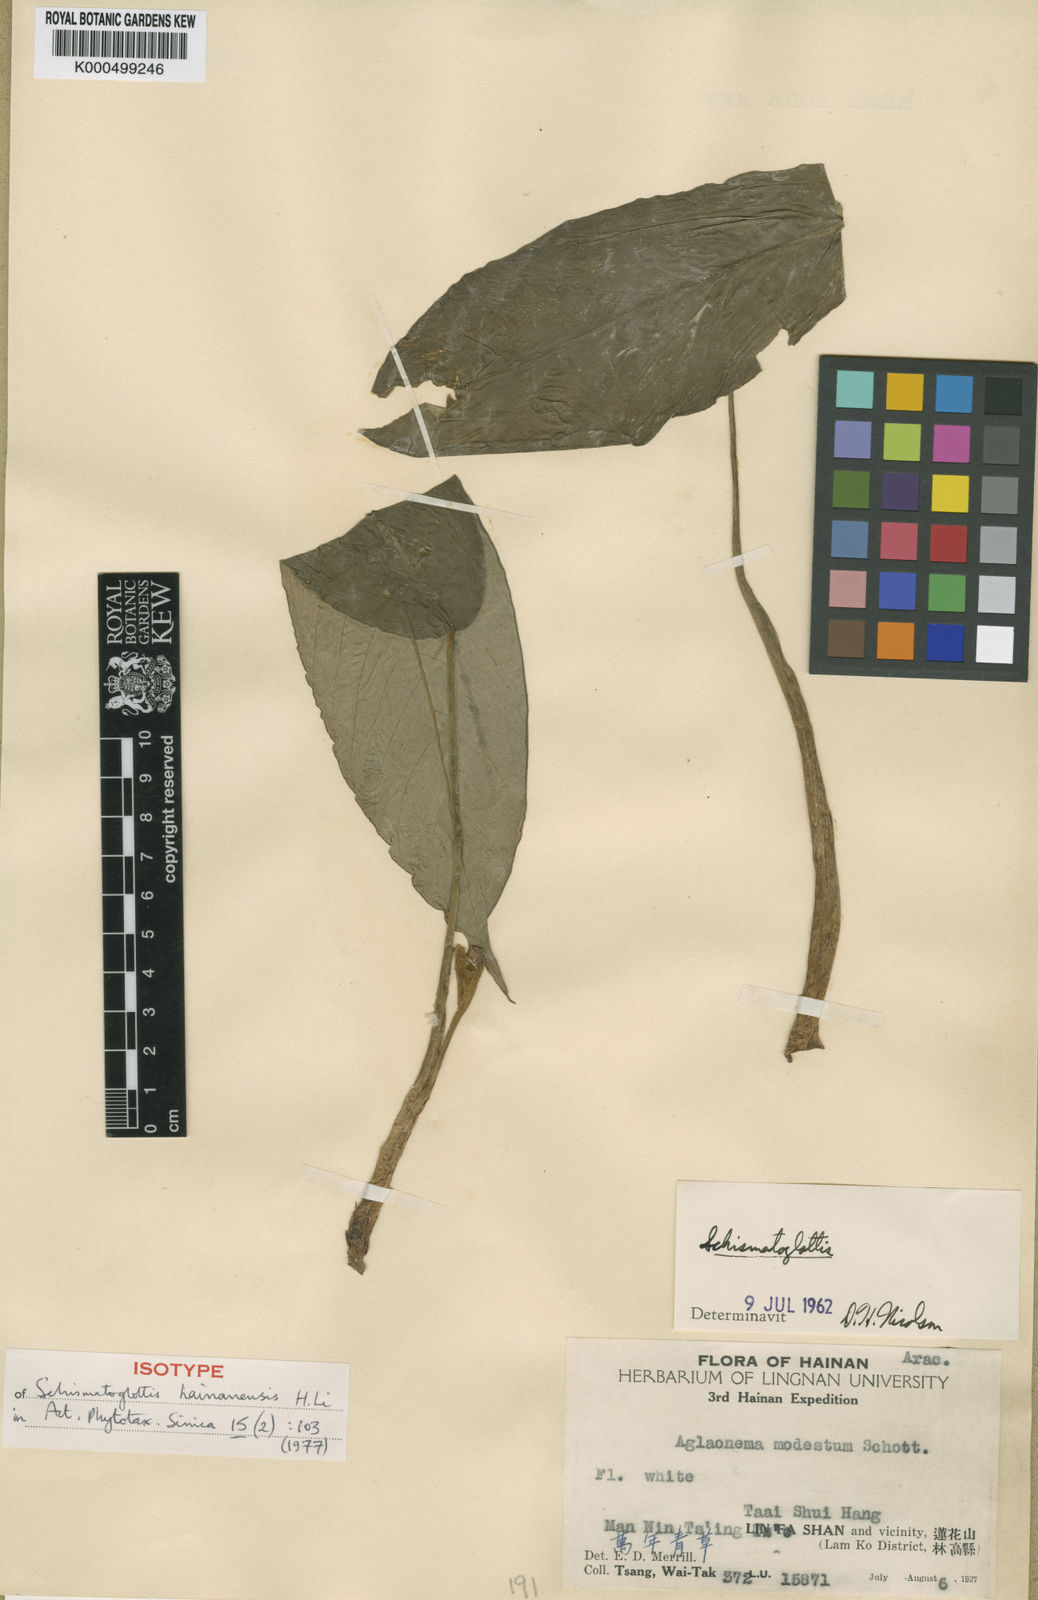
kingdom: Plantae
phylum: Tracheophyta
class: Liliopsida
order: Alismatales
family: Araceae
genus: Schismatoglottis
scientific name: Schismatoglottis hainanensis
